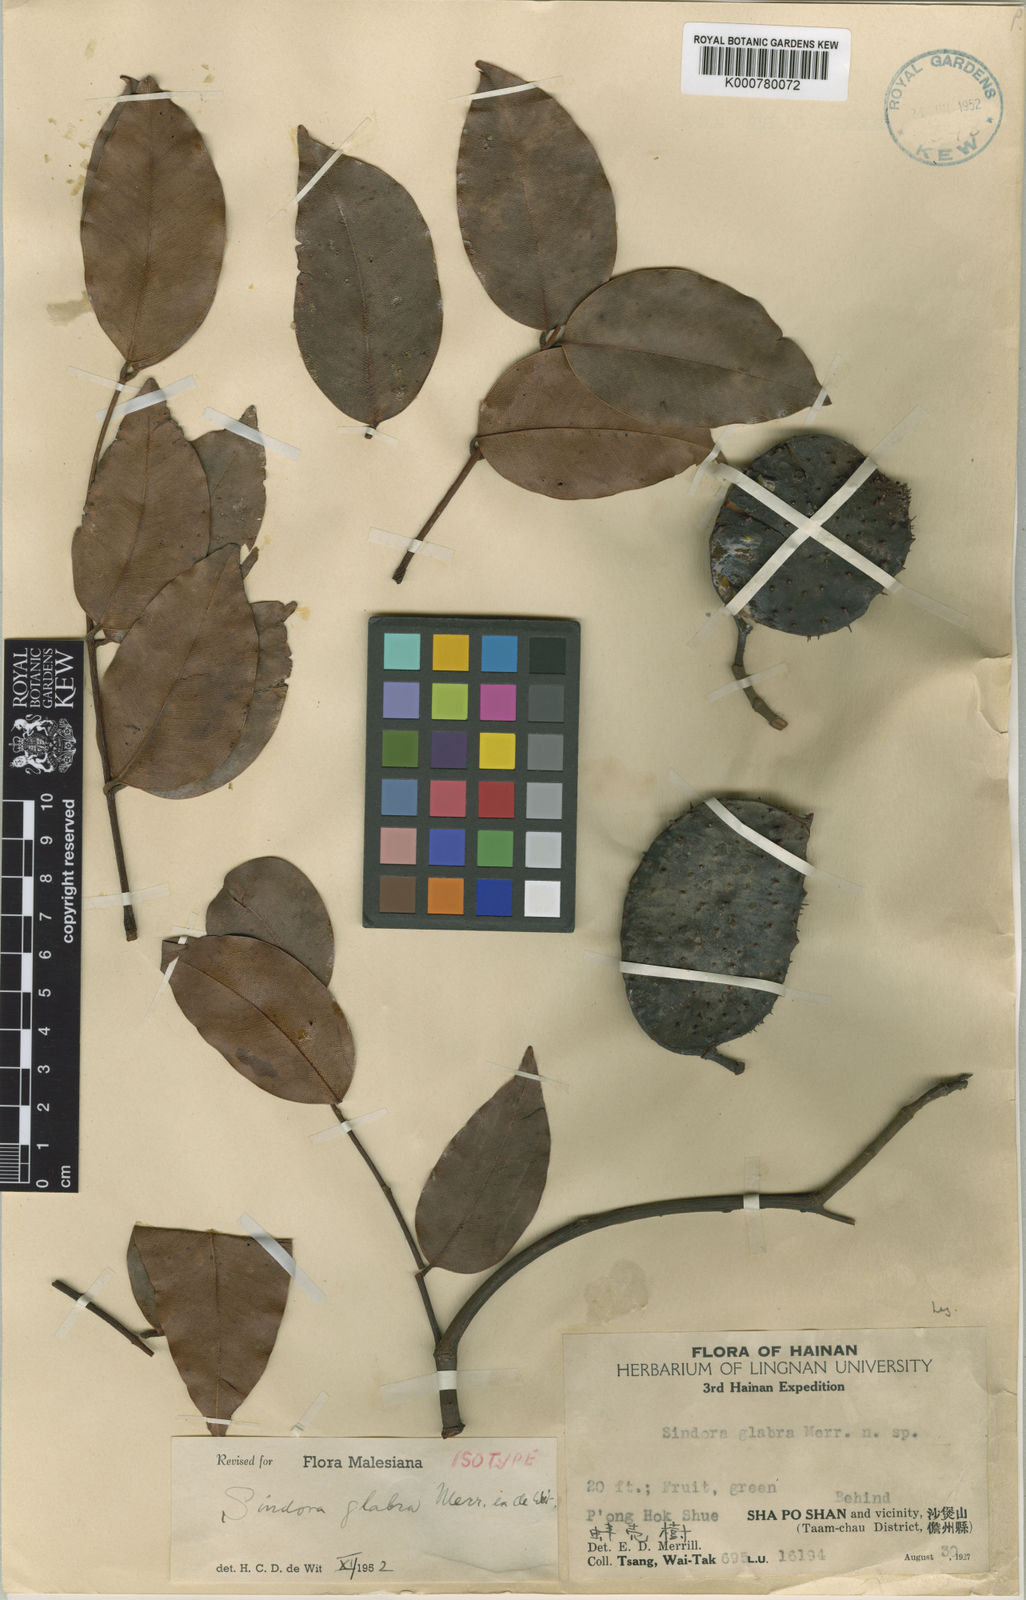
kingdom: Plantae
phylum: Tracheophyta
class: Magnoliopsida
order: Fabales
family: Fabaceae
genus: Sindora
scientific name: Sindora glabra
